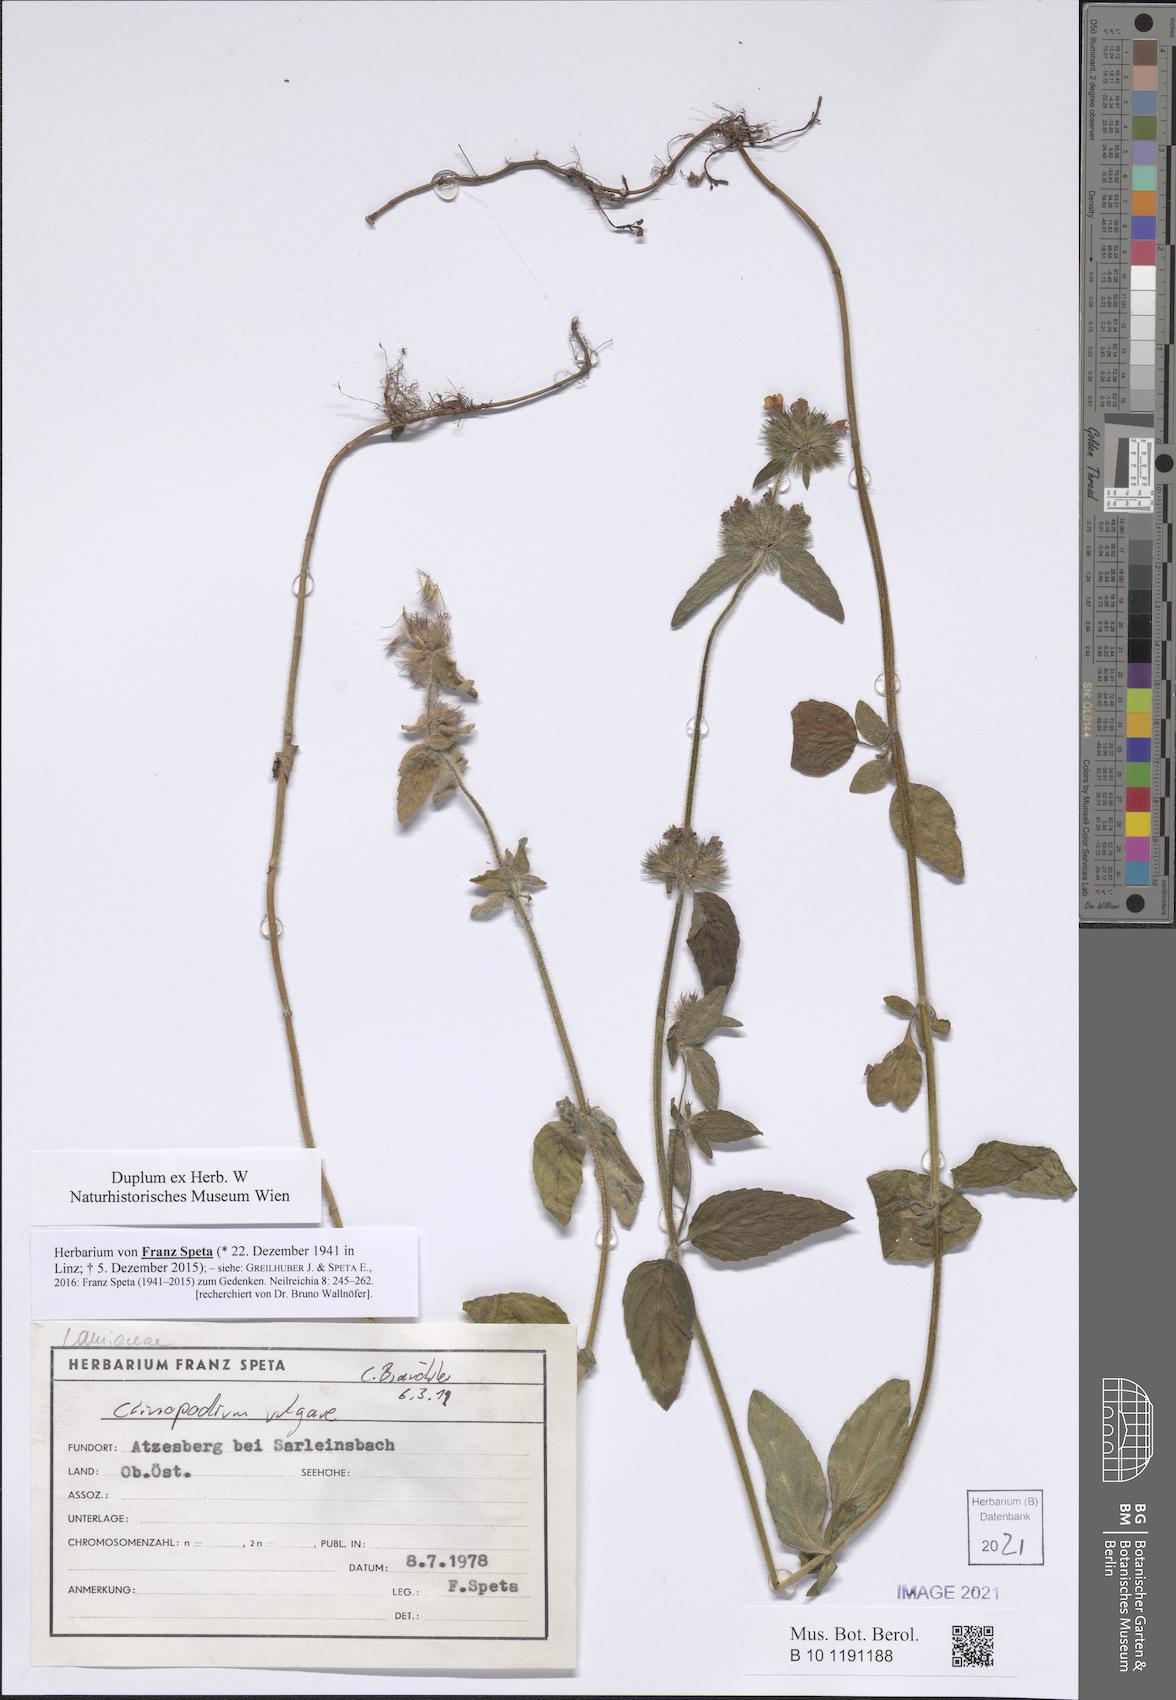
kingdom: Plantae
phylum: Tracheophyta
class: Magnoliopsida
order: Lamiales
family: Lamiaceae
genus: Clinopodium
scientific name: Clinopodium vulgare
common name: Wild basil
